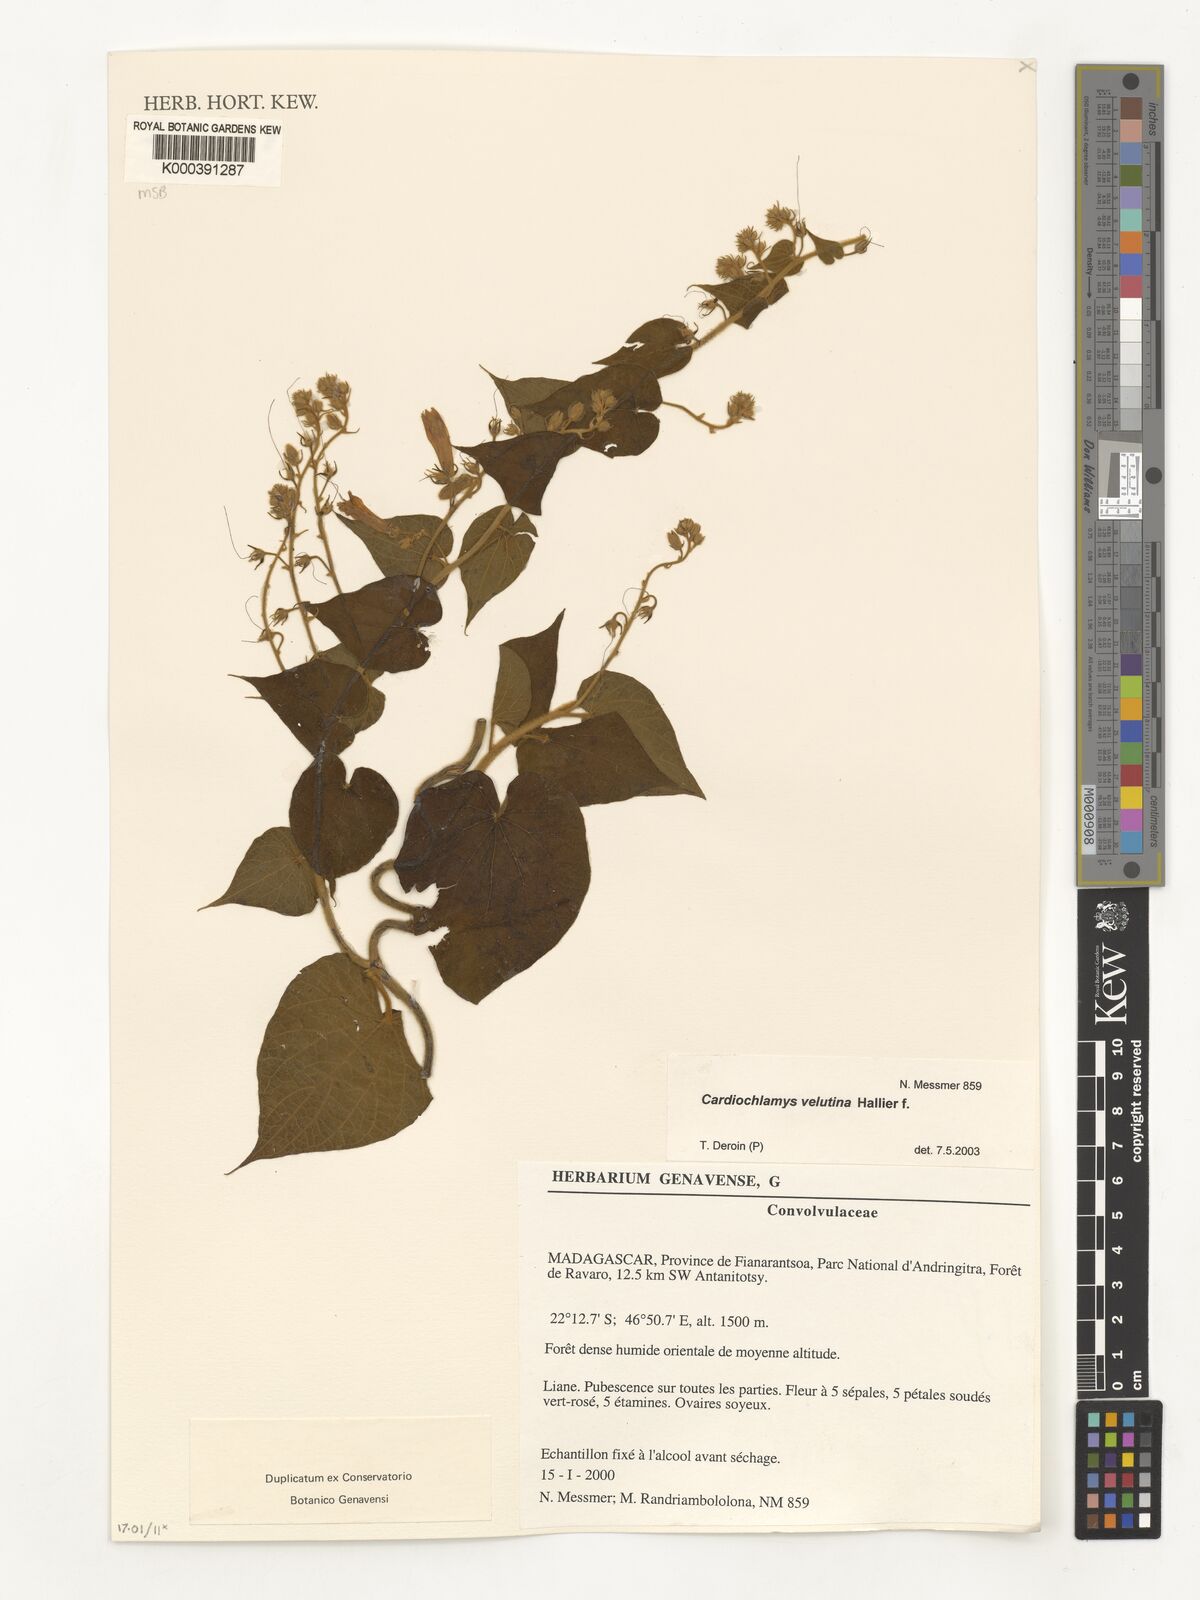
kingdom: Plantae
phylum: Tracheophyta
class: Magnoliopsida
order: Solanales
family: Convolvulaceae
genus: Cardiochlamys
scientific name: Cardiochlamys velutina
